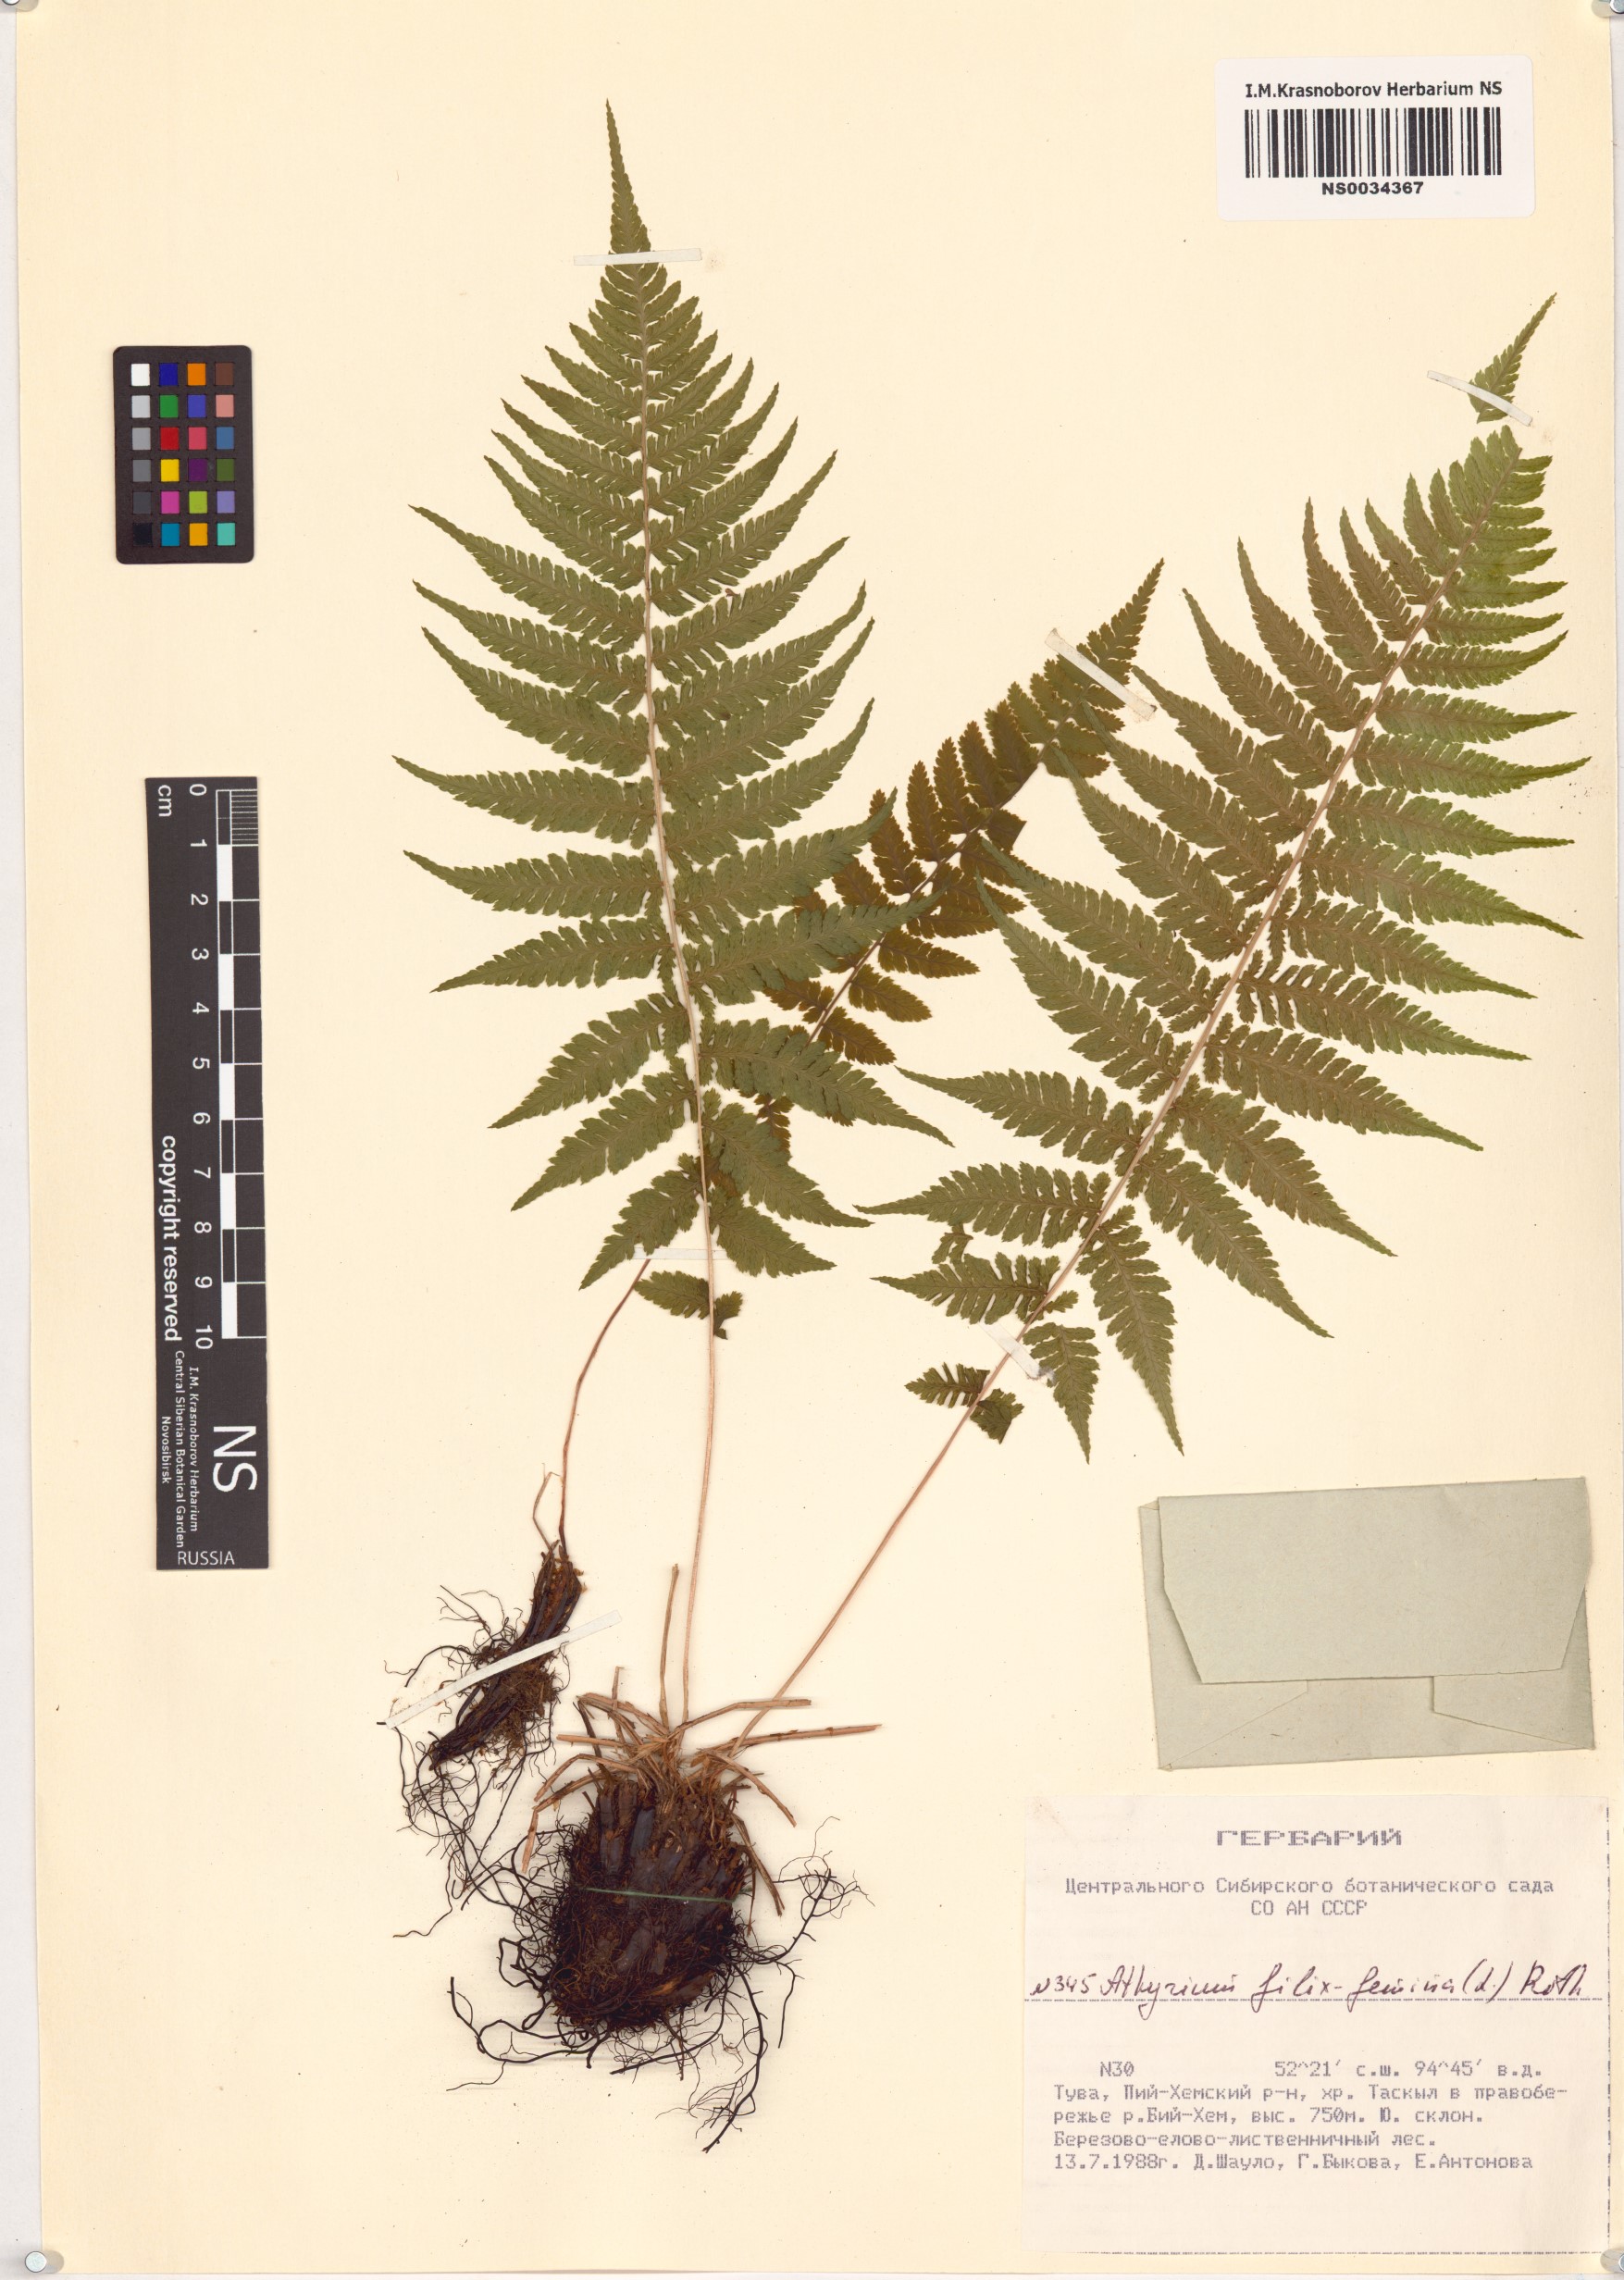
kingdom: Plantae
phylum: Tracheophyta
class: Polypodiopsida
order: Polypodiales
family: Athyriaceae
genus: Athyrium
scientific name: Athyrium filix-femina
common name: Lady fern
